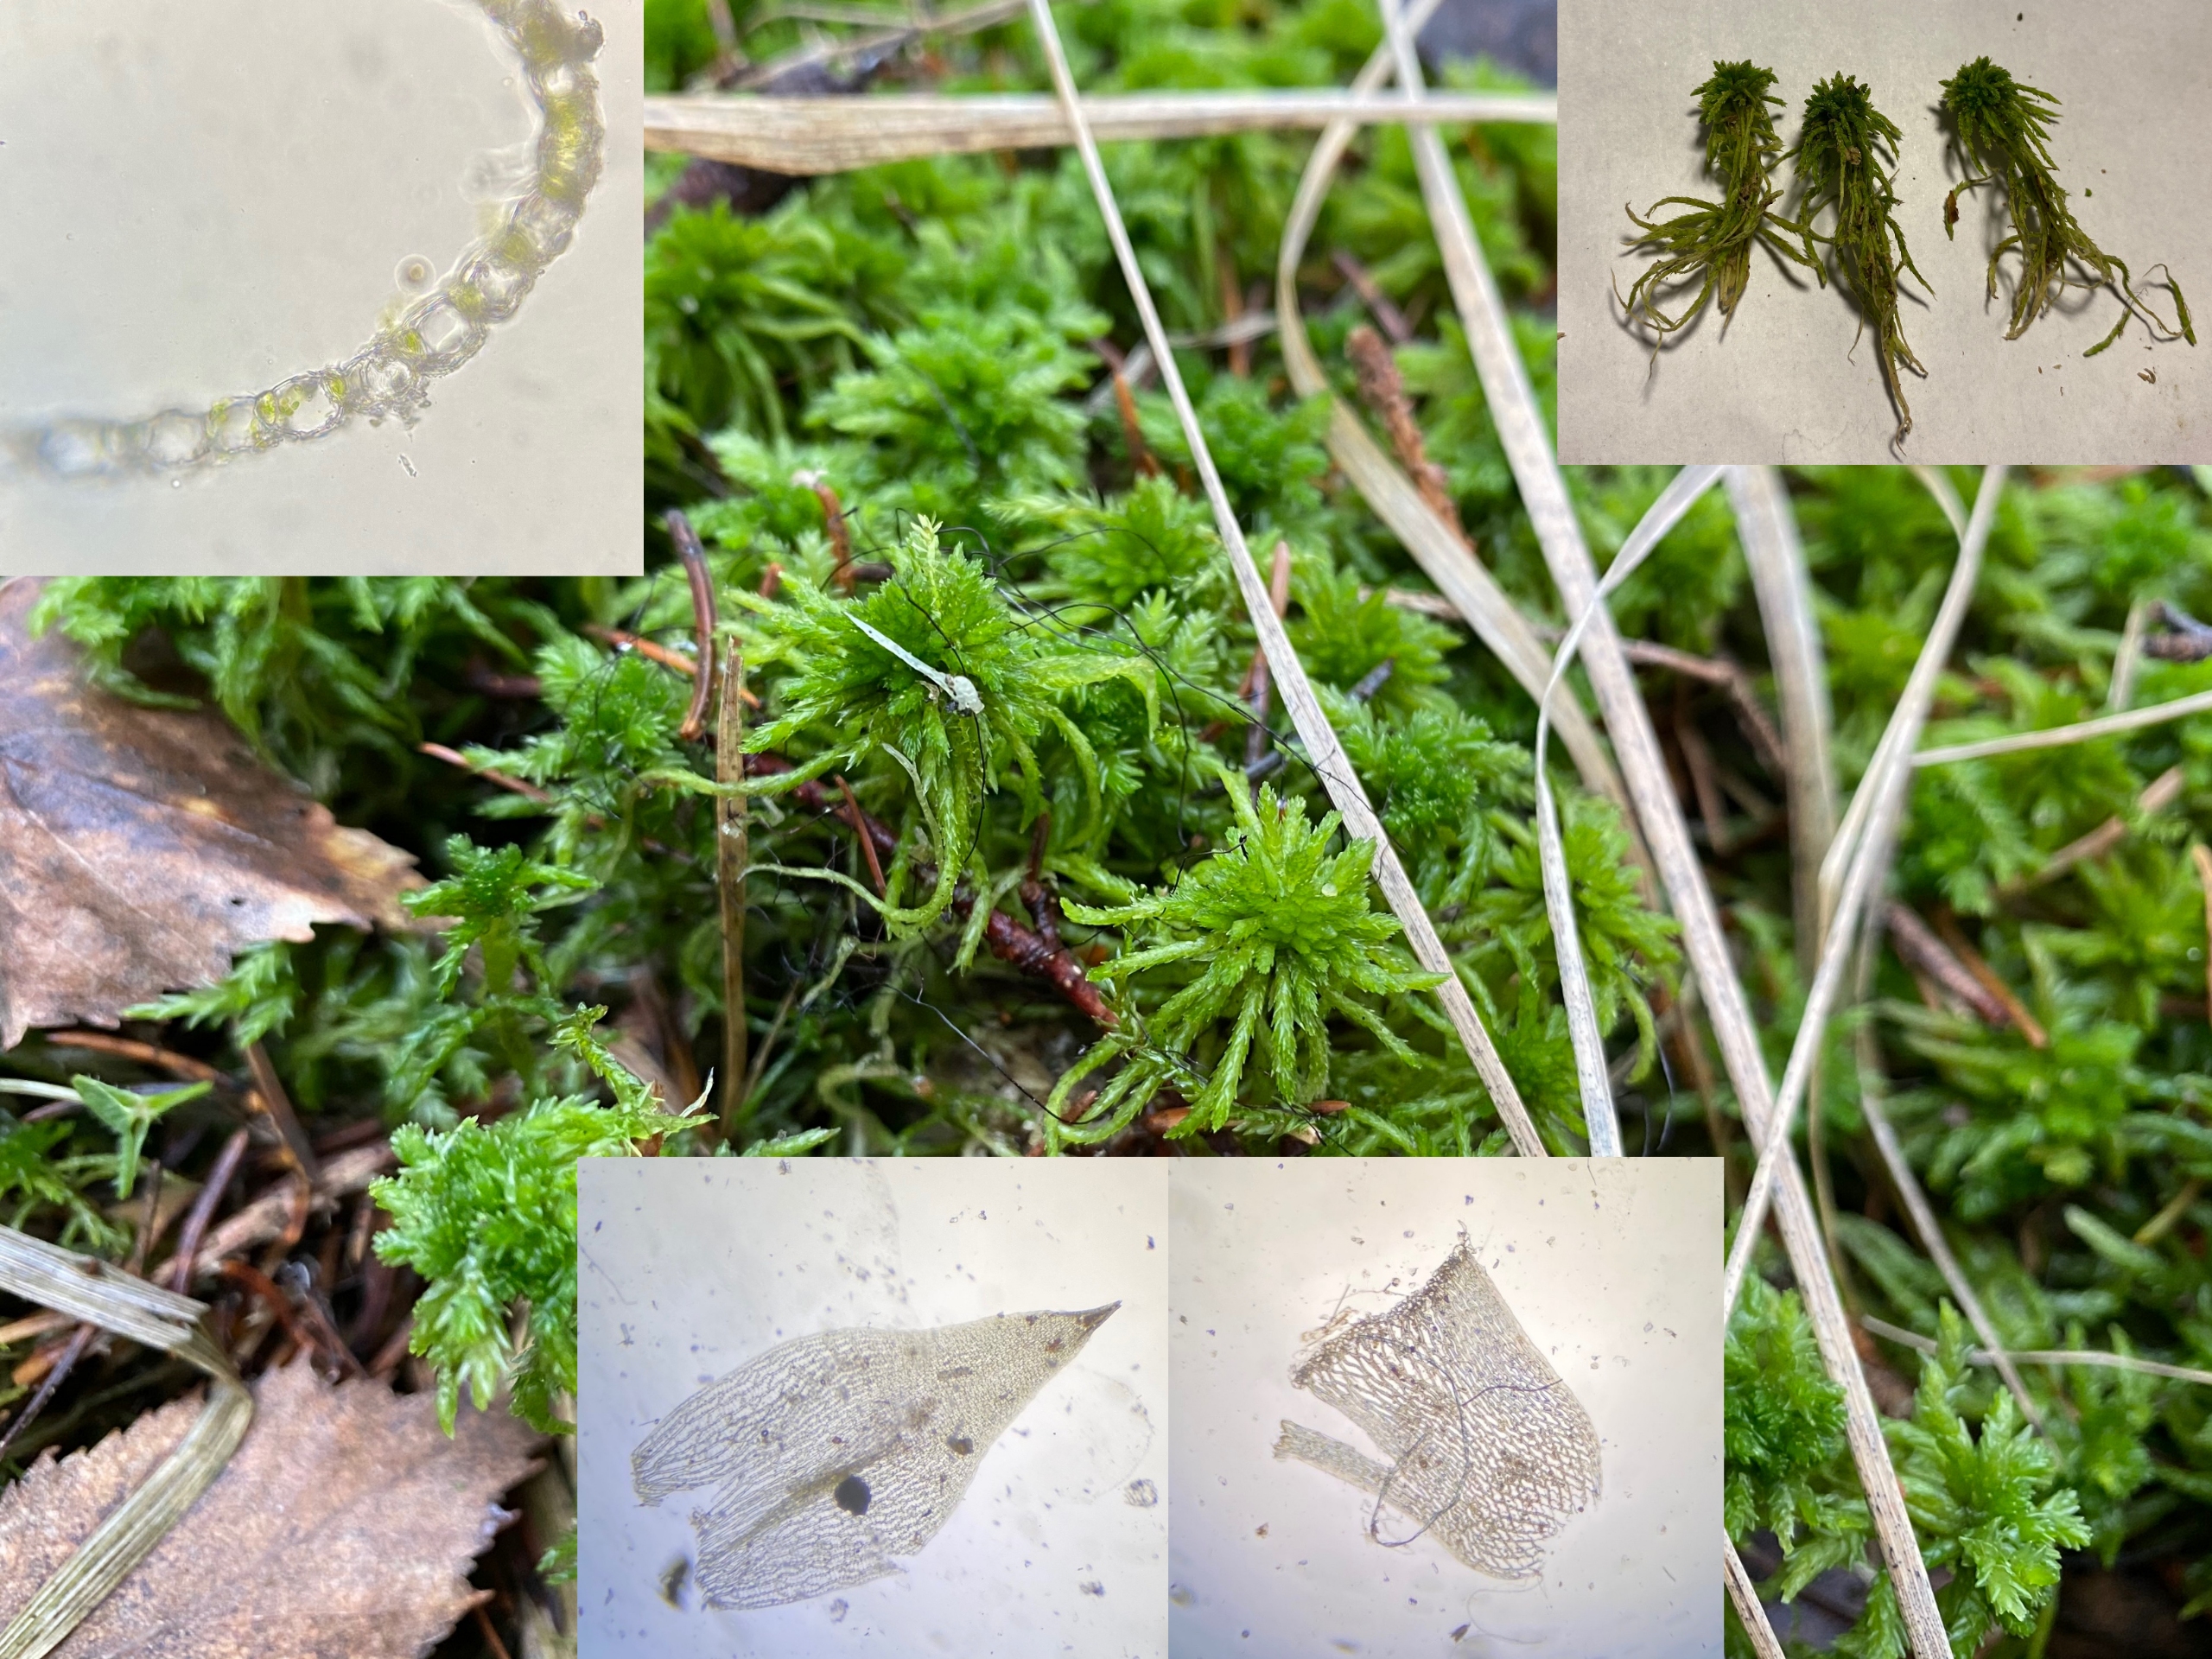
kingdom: Plantae
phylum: Bryophyta
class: Sphagnopsida
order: Sphagnales
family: Sphagnaceae
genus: Sphagnum
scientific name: Sphagnum girgensohnii
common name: Stiv tørvemos
